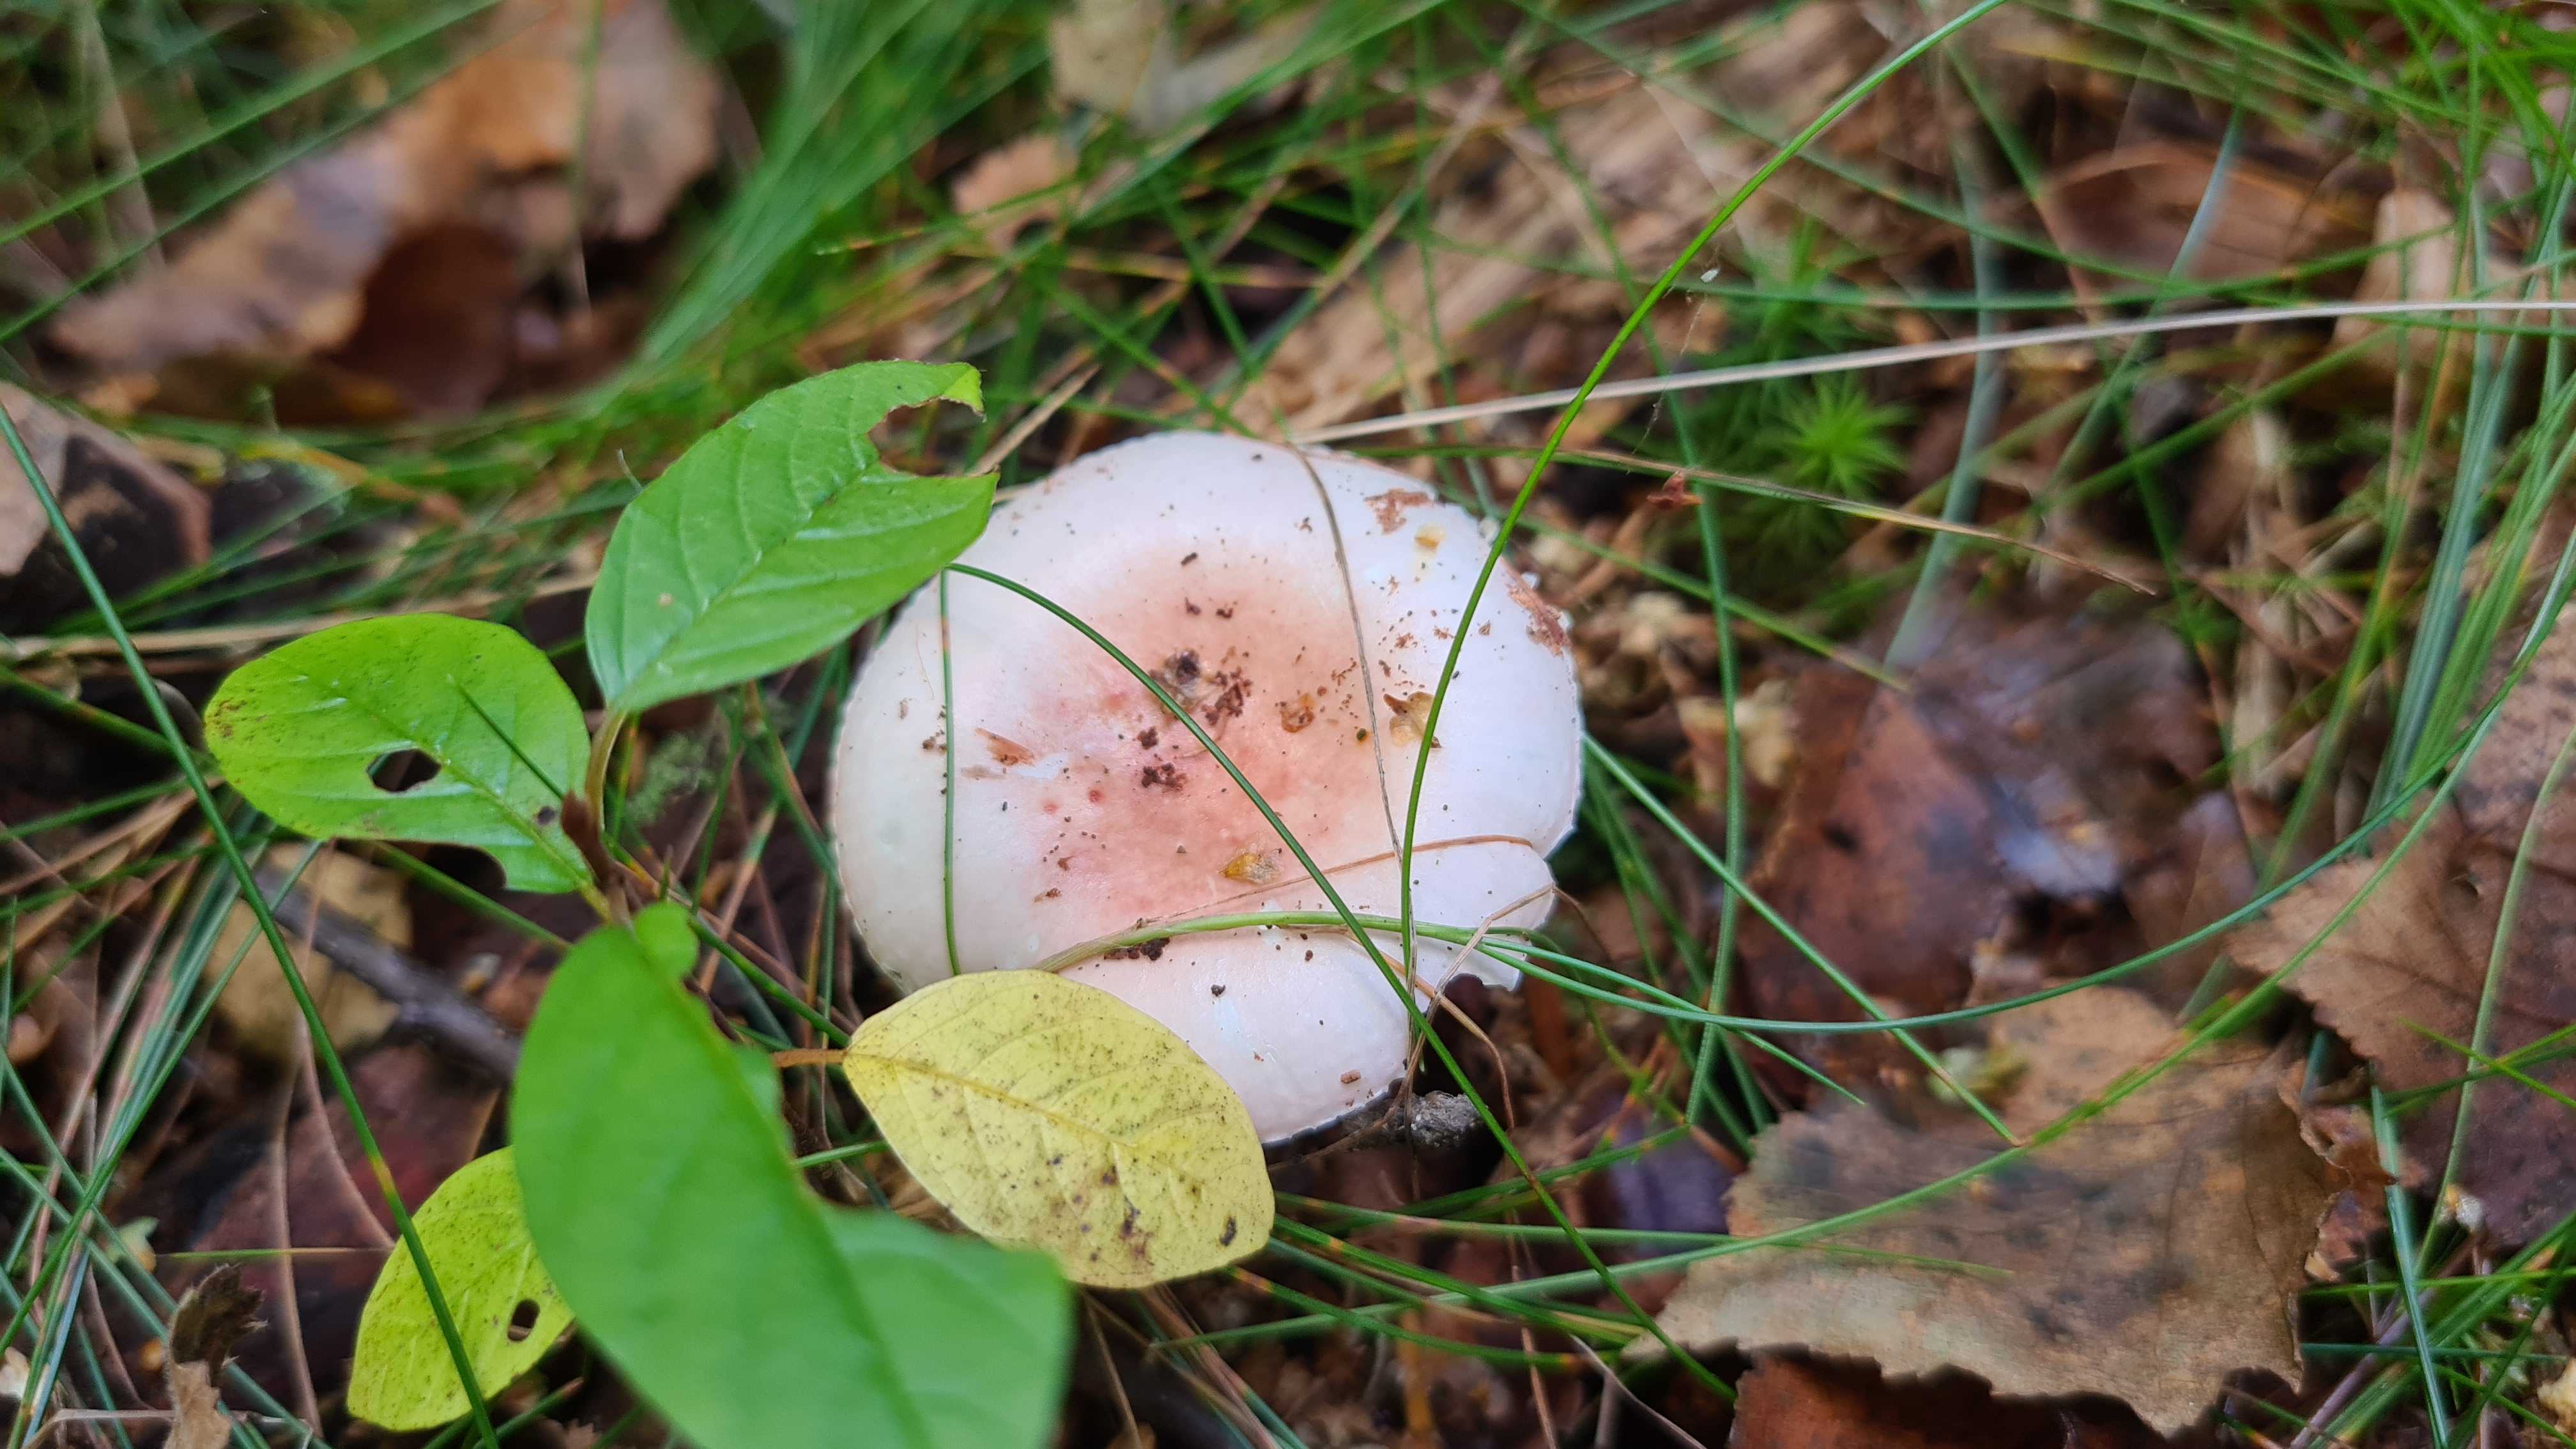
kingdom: Fungi
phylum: Basidiomycota
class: Agaricomycetes
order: Russulales
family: Russulaceae
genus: Russula
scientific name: Russula betularum
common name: bleg gift-skørhat
